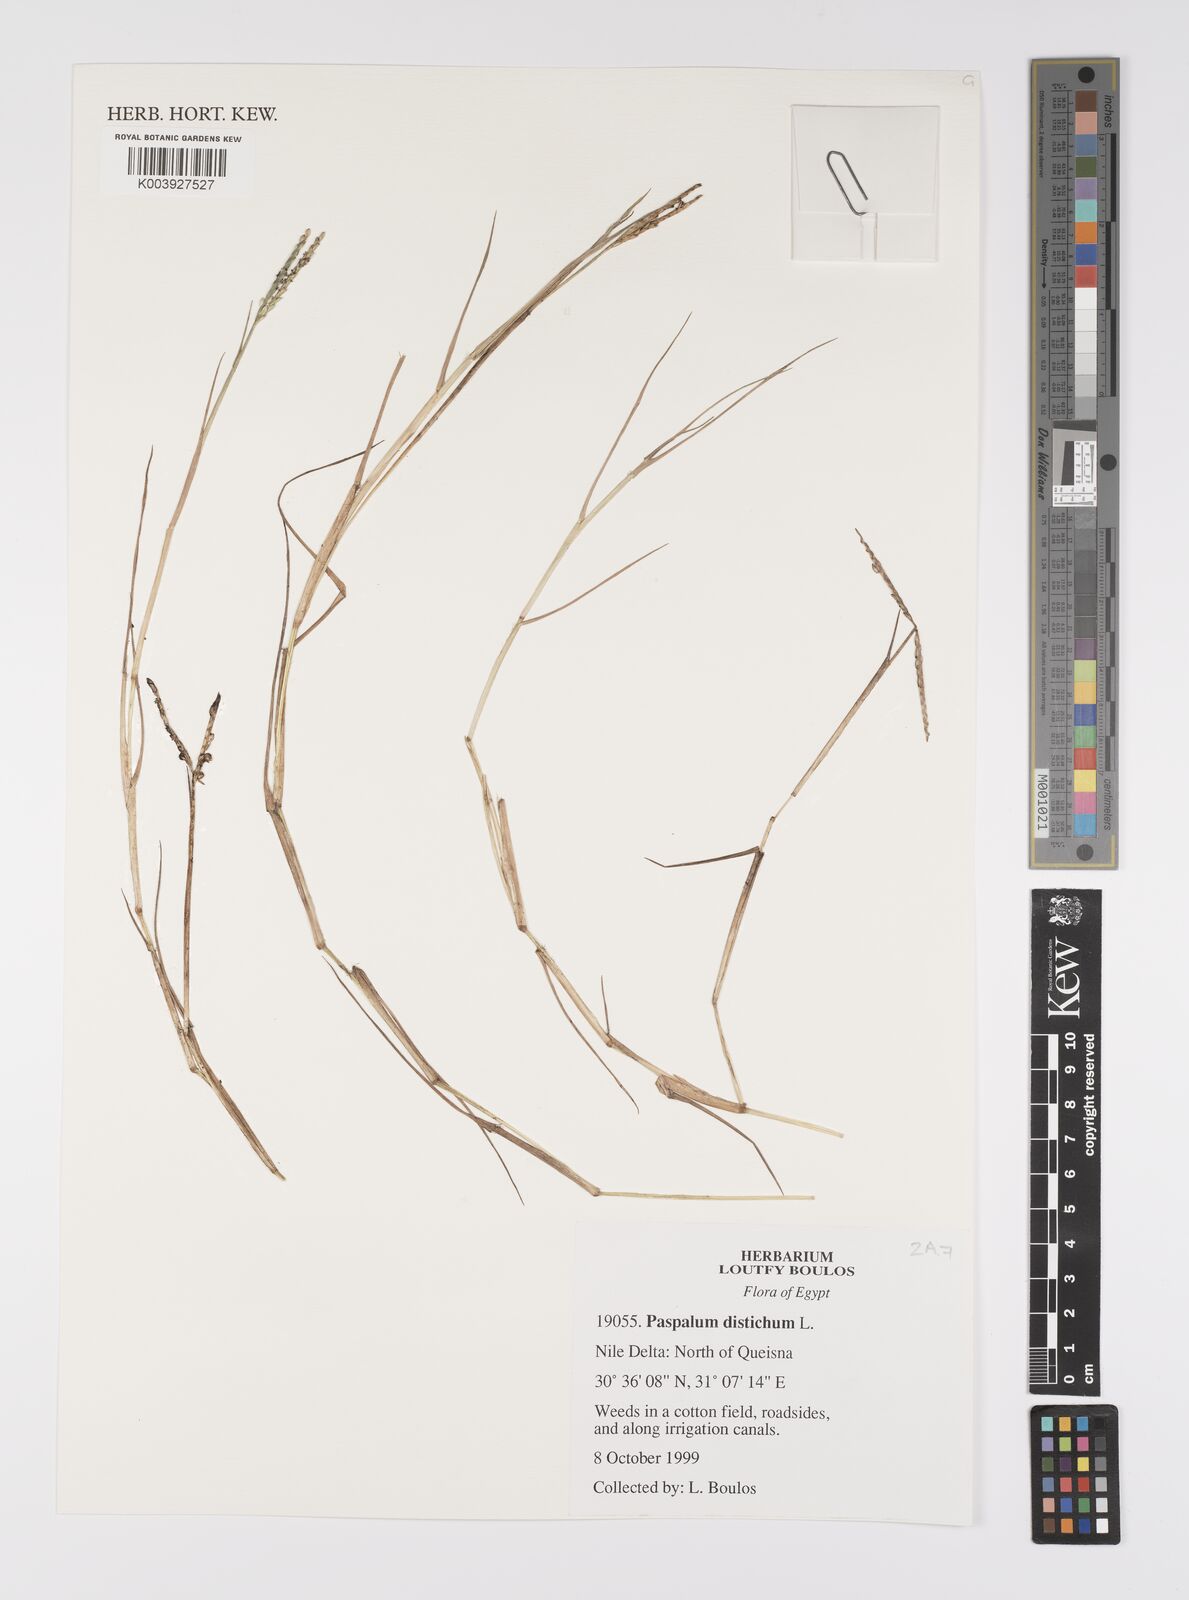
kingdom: Plantae
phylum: Tracheophyta
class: Liliopsida
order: Poales
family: Poaceae
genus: Paspalum
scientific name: Paspalum distichum
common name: Knotgrass
